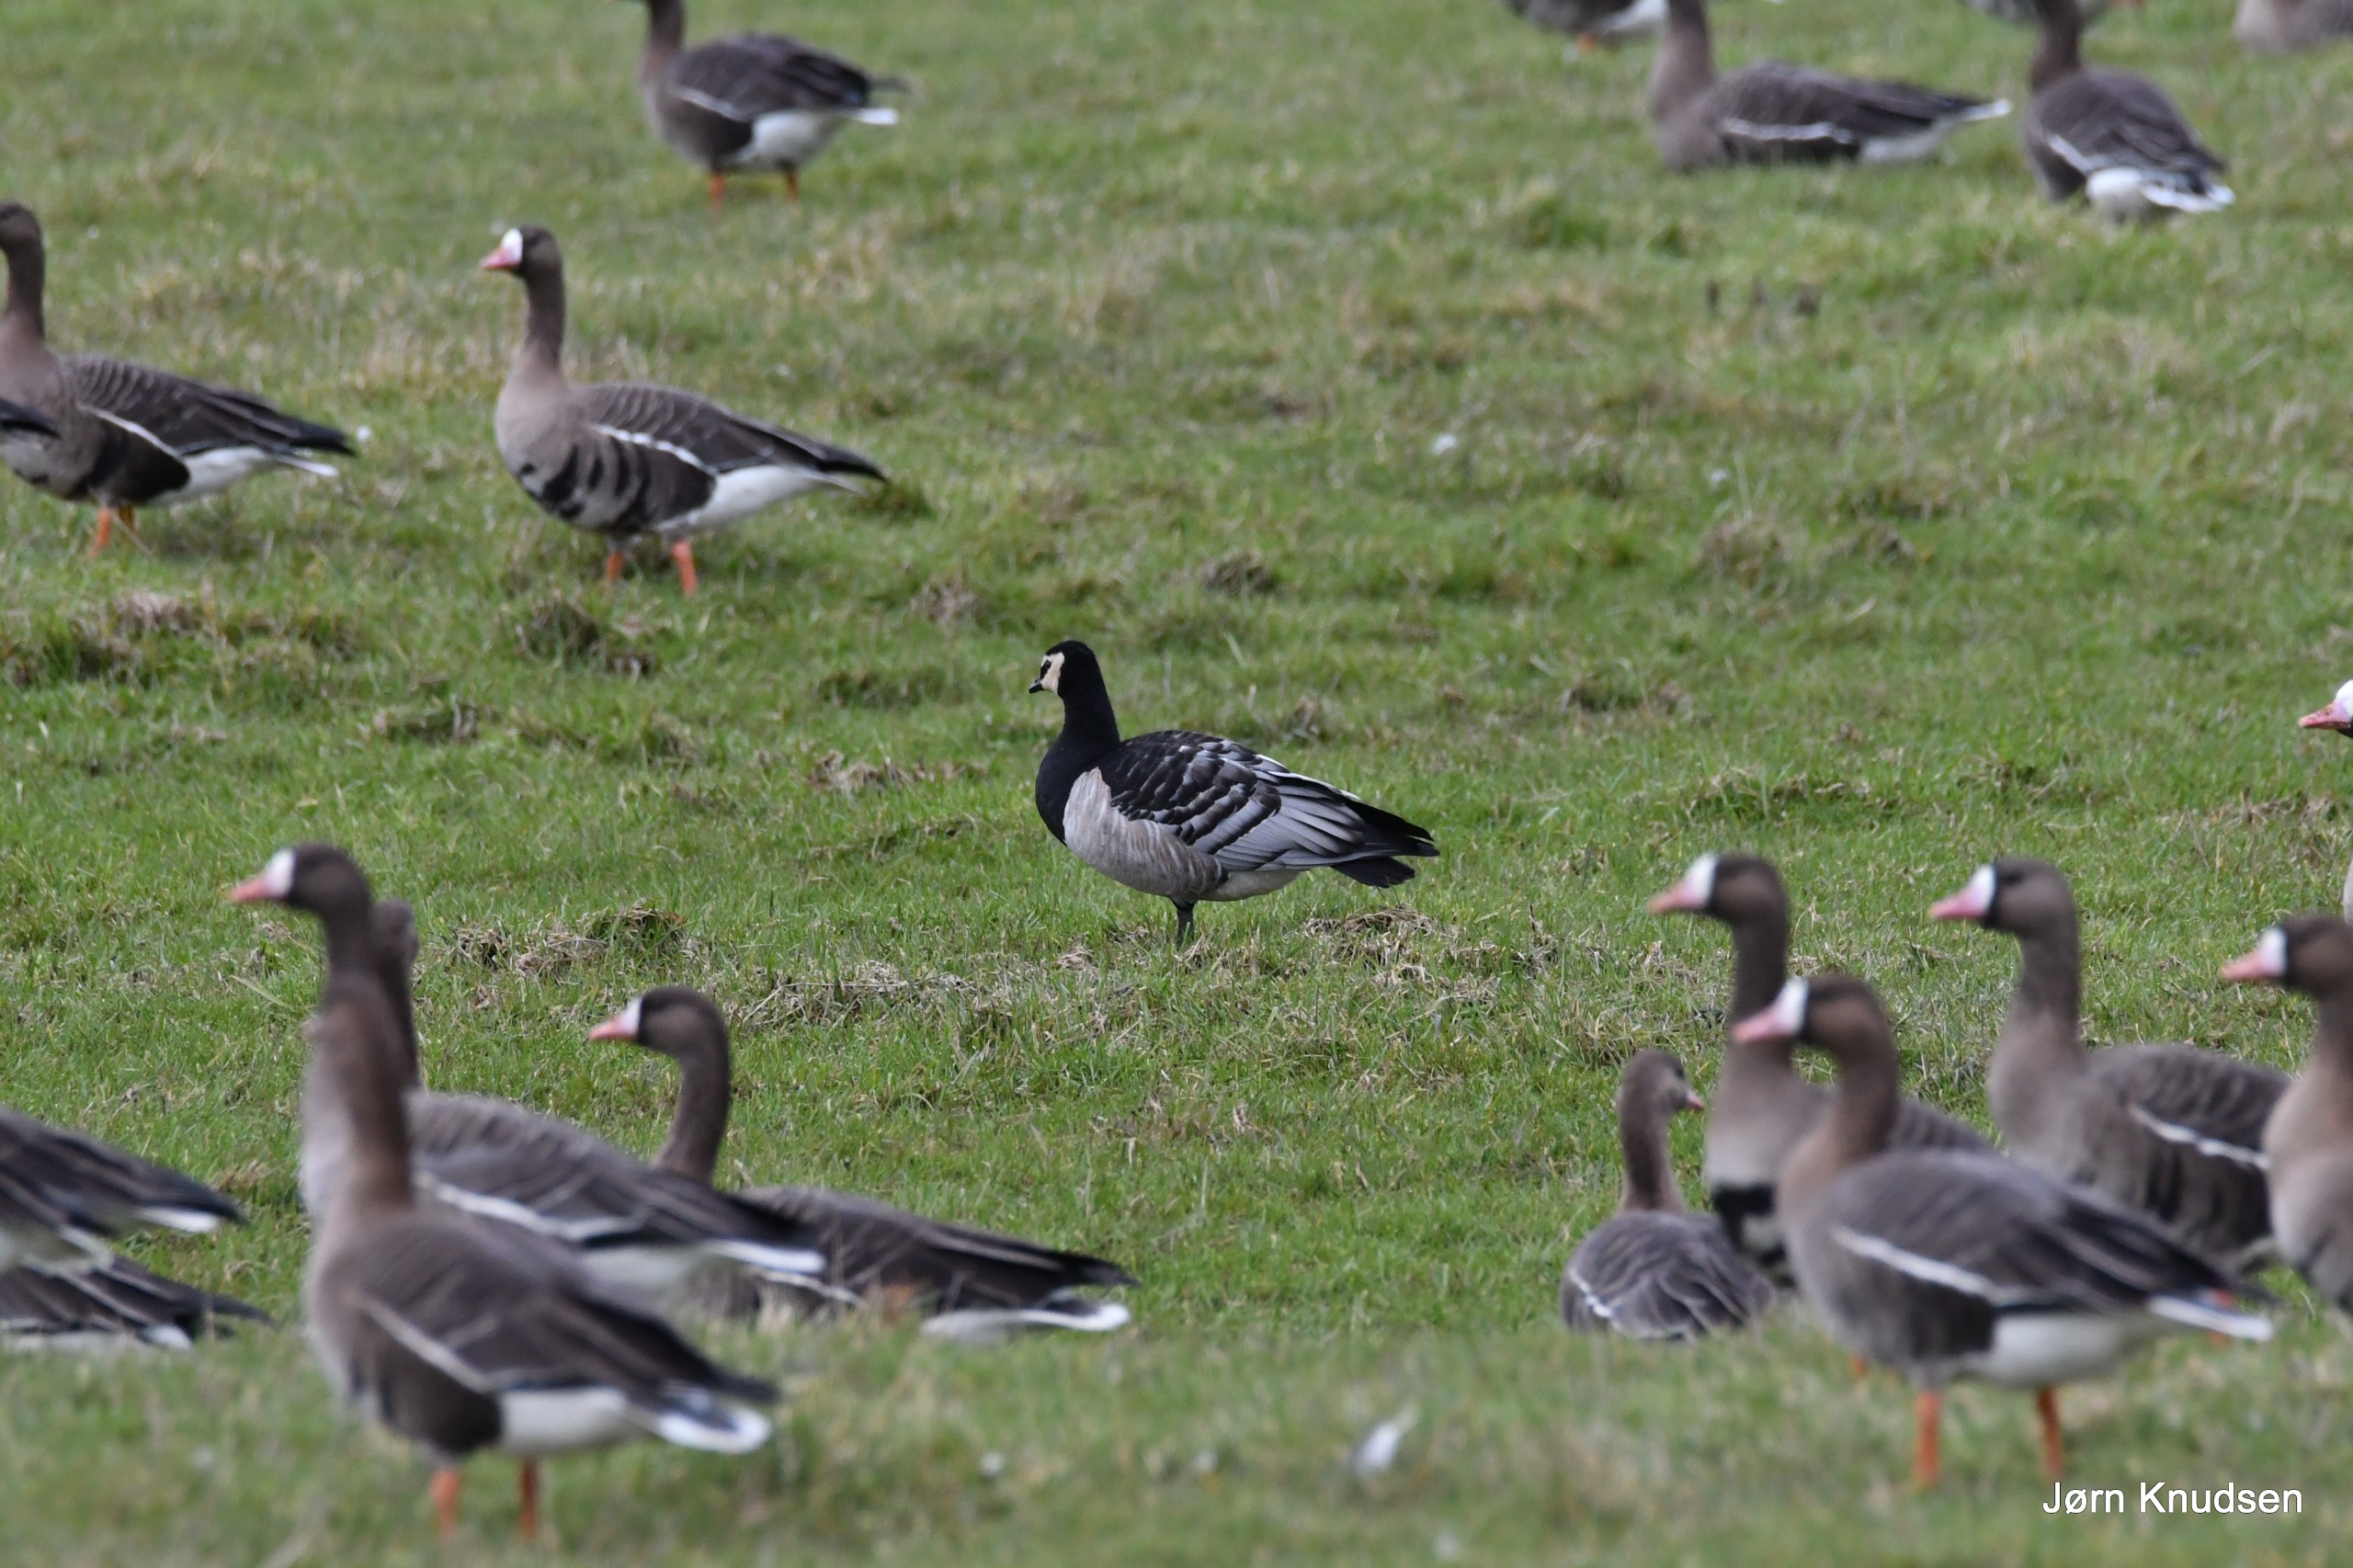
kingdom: Animalia
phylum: Chordata
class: Aves
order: Anseriformes
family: Anatidae
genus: Branta
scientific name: Branta leucopsis
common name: Bramgås
